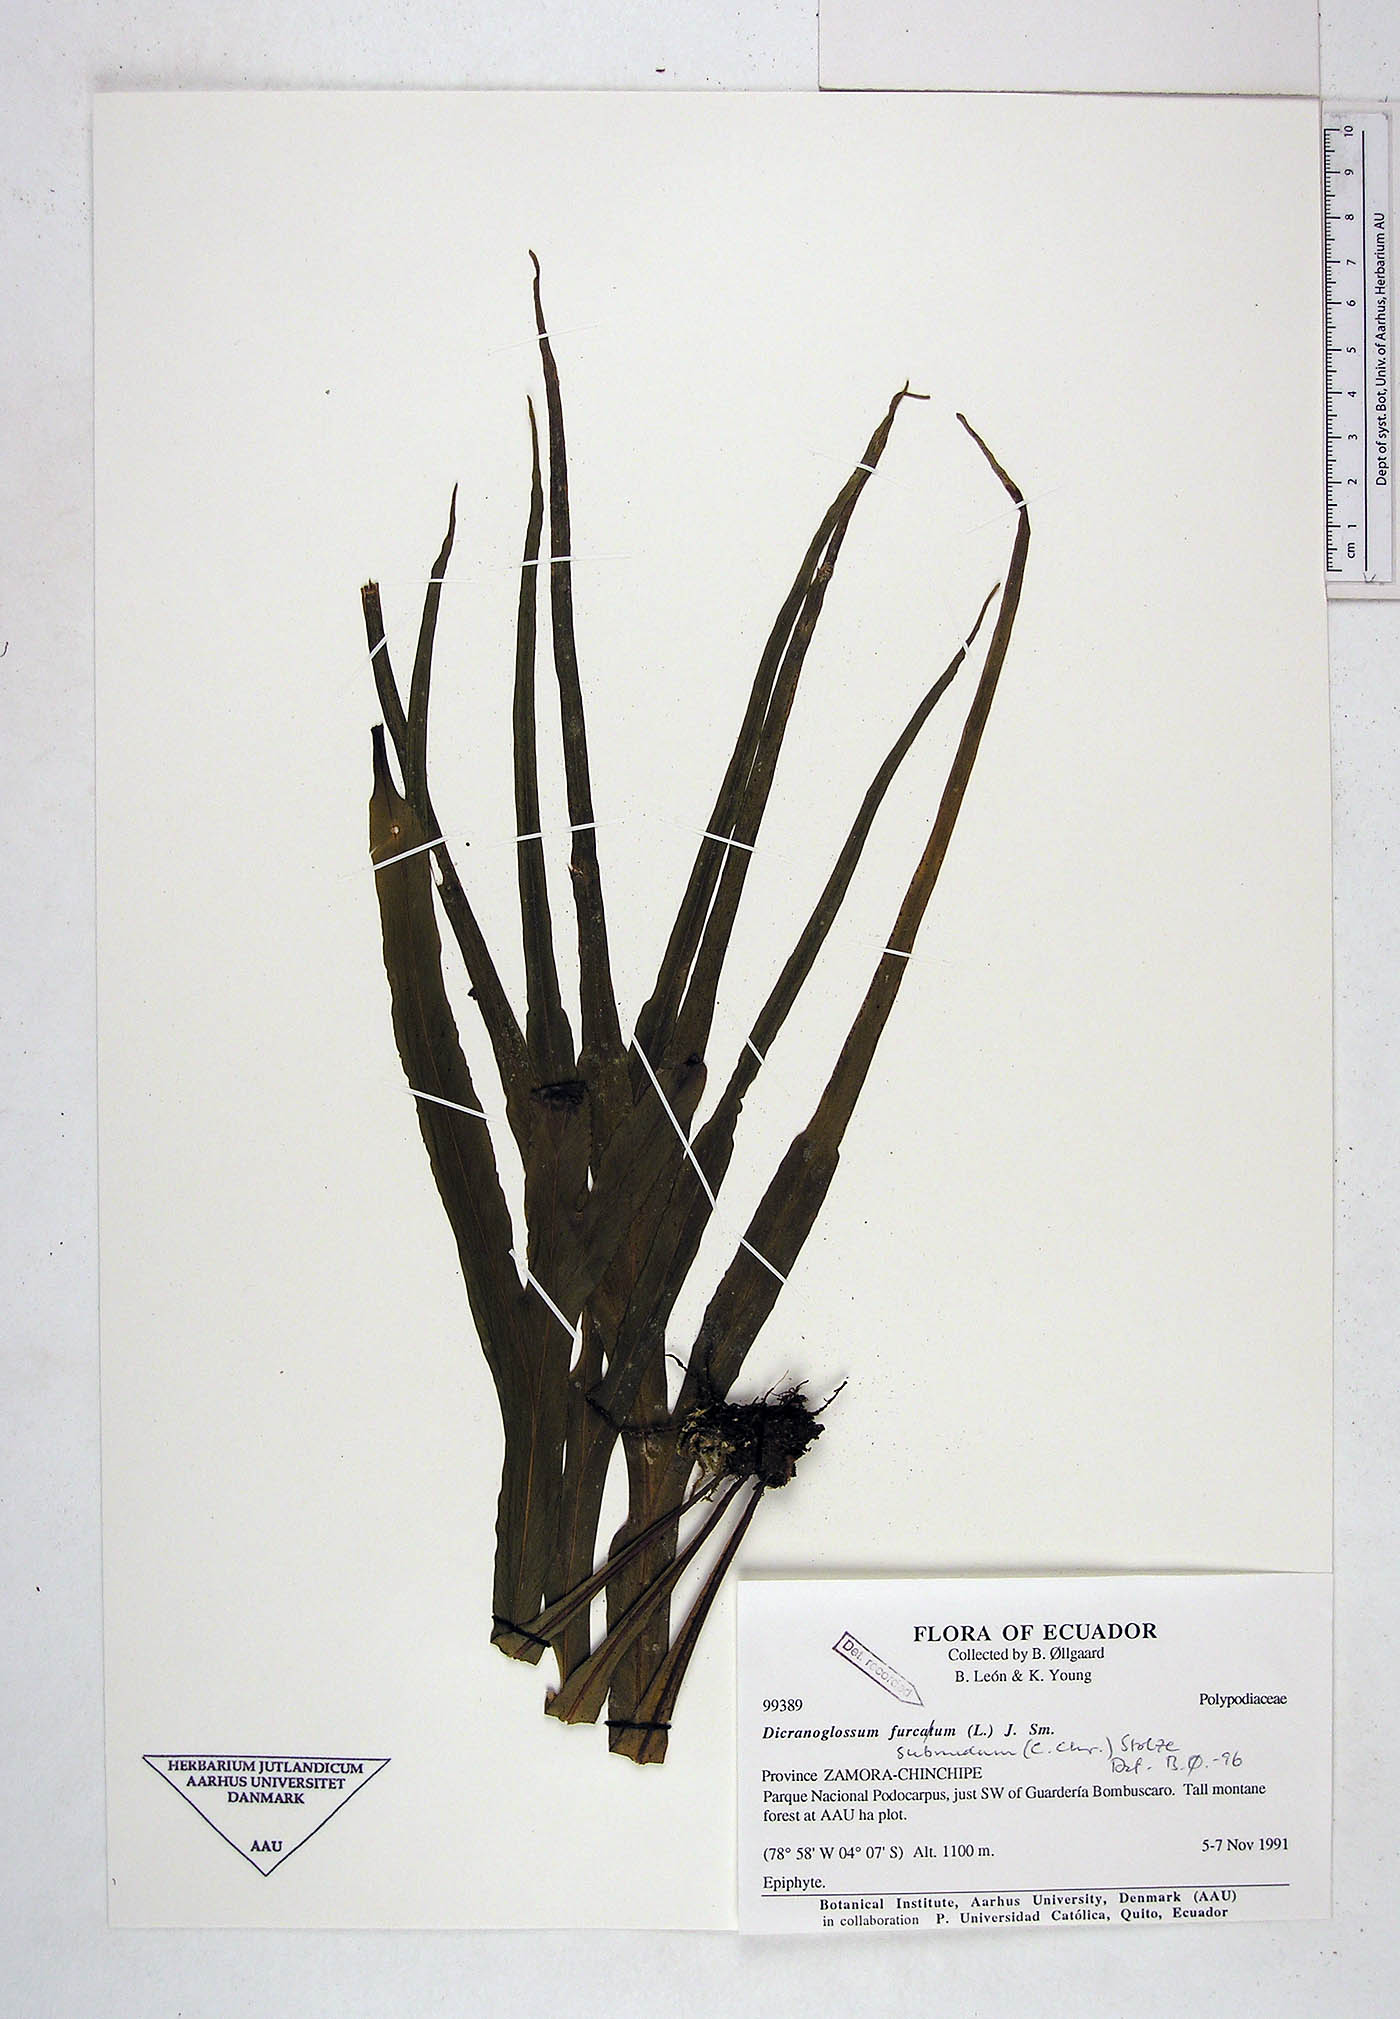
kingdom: Plantae
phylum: Tracheophyta
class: Polypodiopsida
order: Polypodiales
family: Polypodiaceae
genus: Pleopeltis
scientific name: Pleopeltis subnuda
